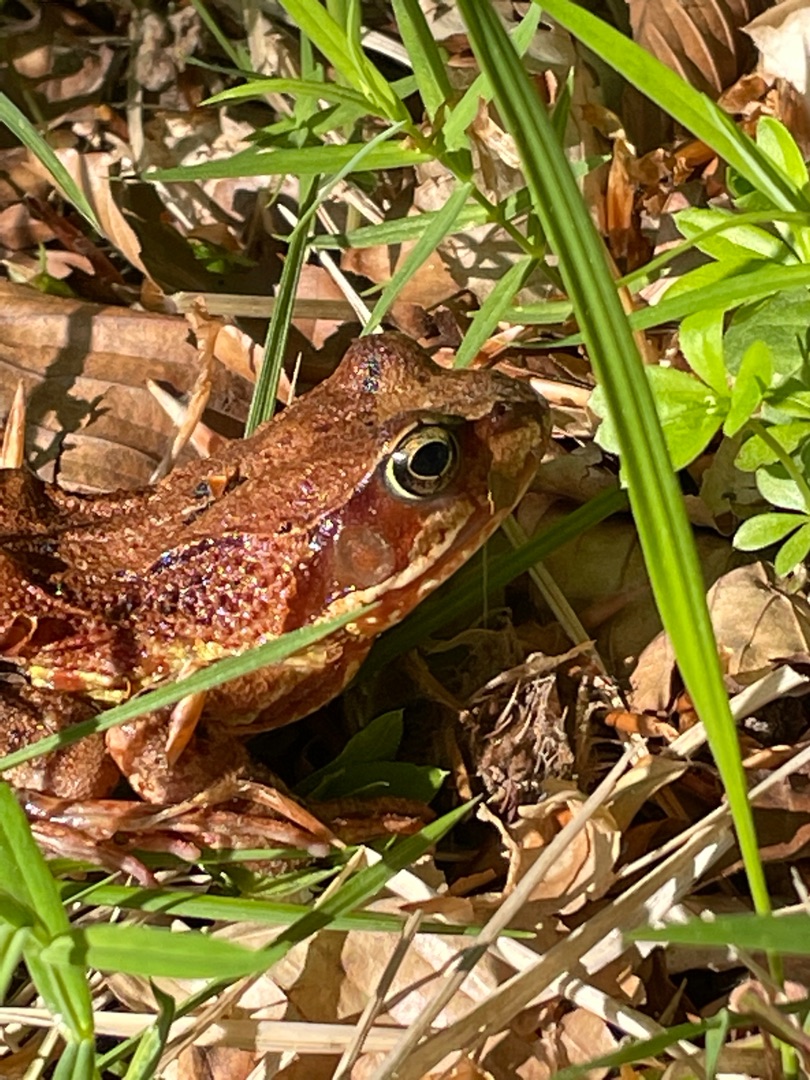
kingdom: Animalia
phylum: Chordata
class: Amphibia
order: Anura
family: Ranidae
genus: Rana
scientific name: Rana temporaria
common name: Butsnudet frø
